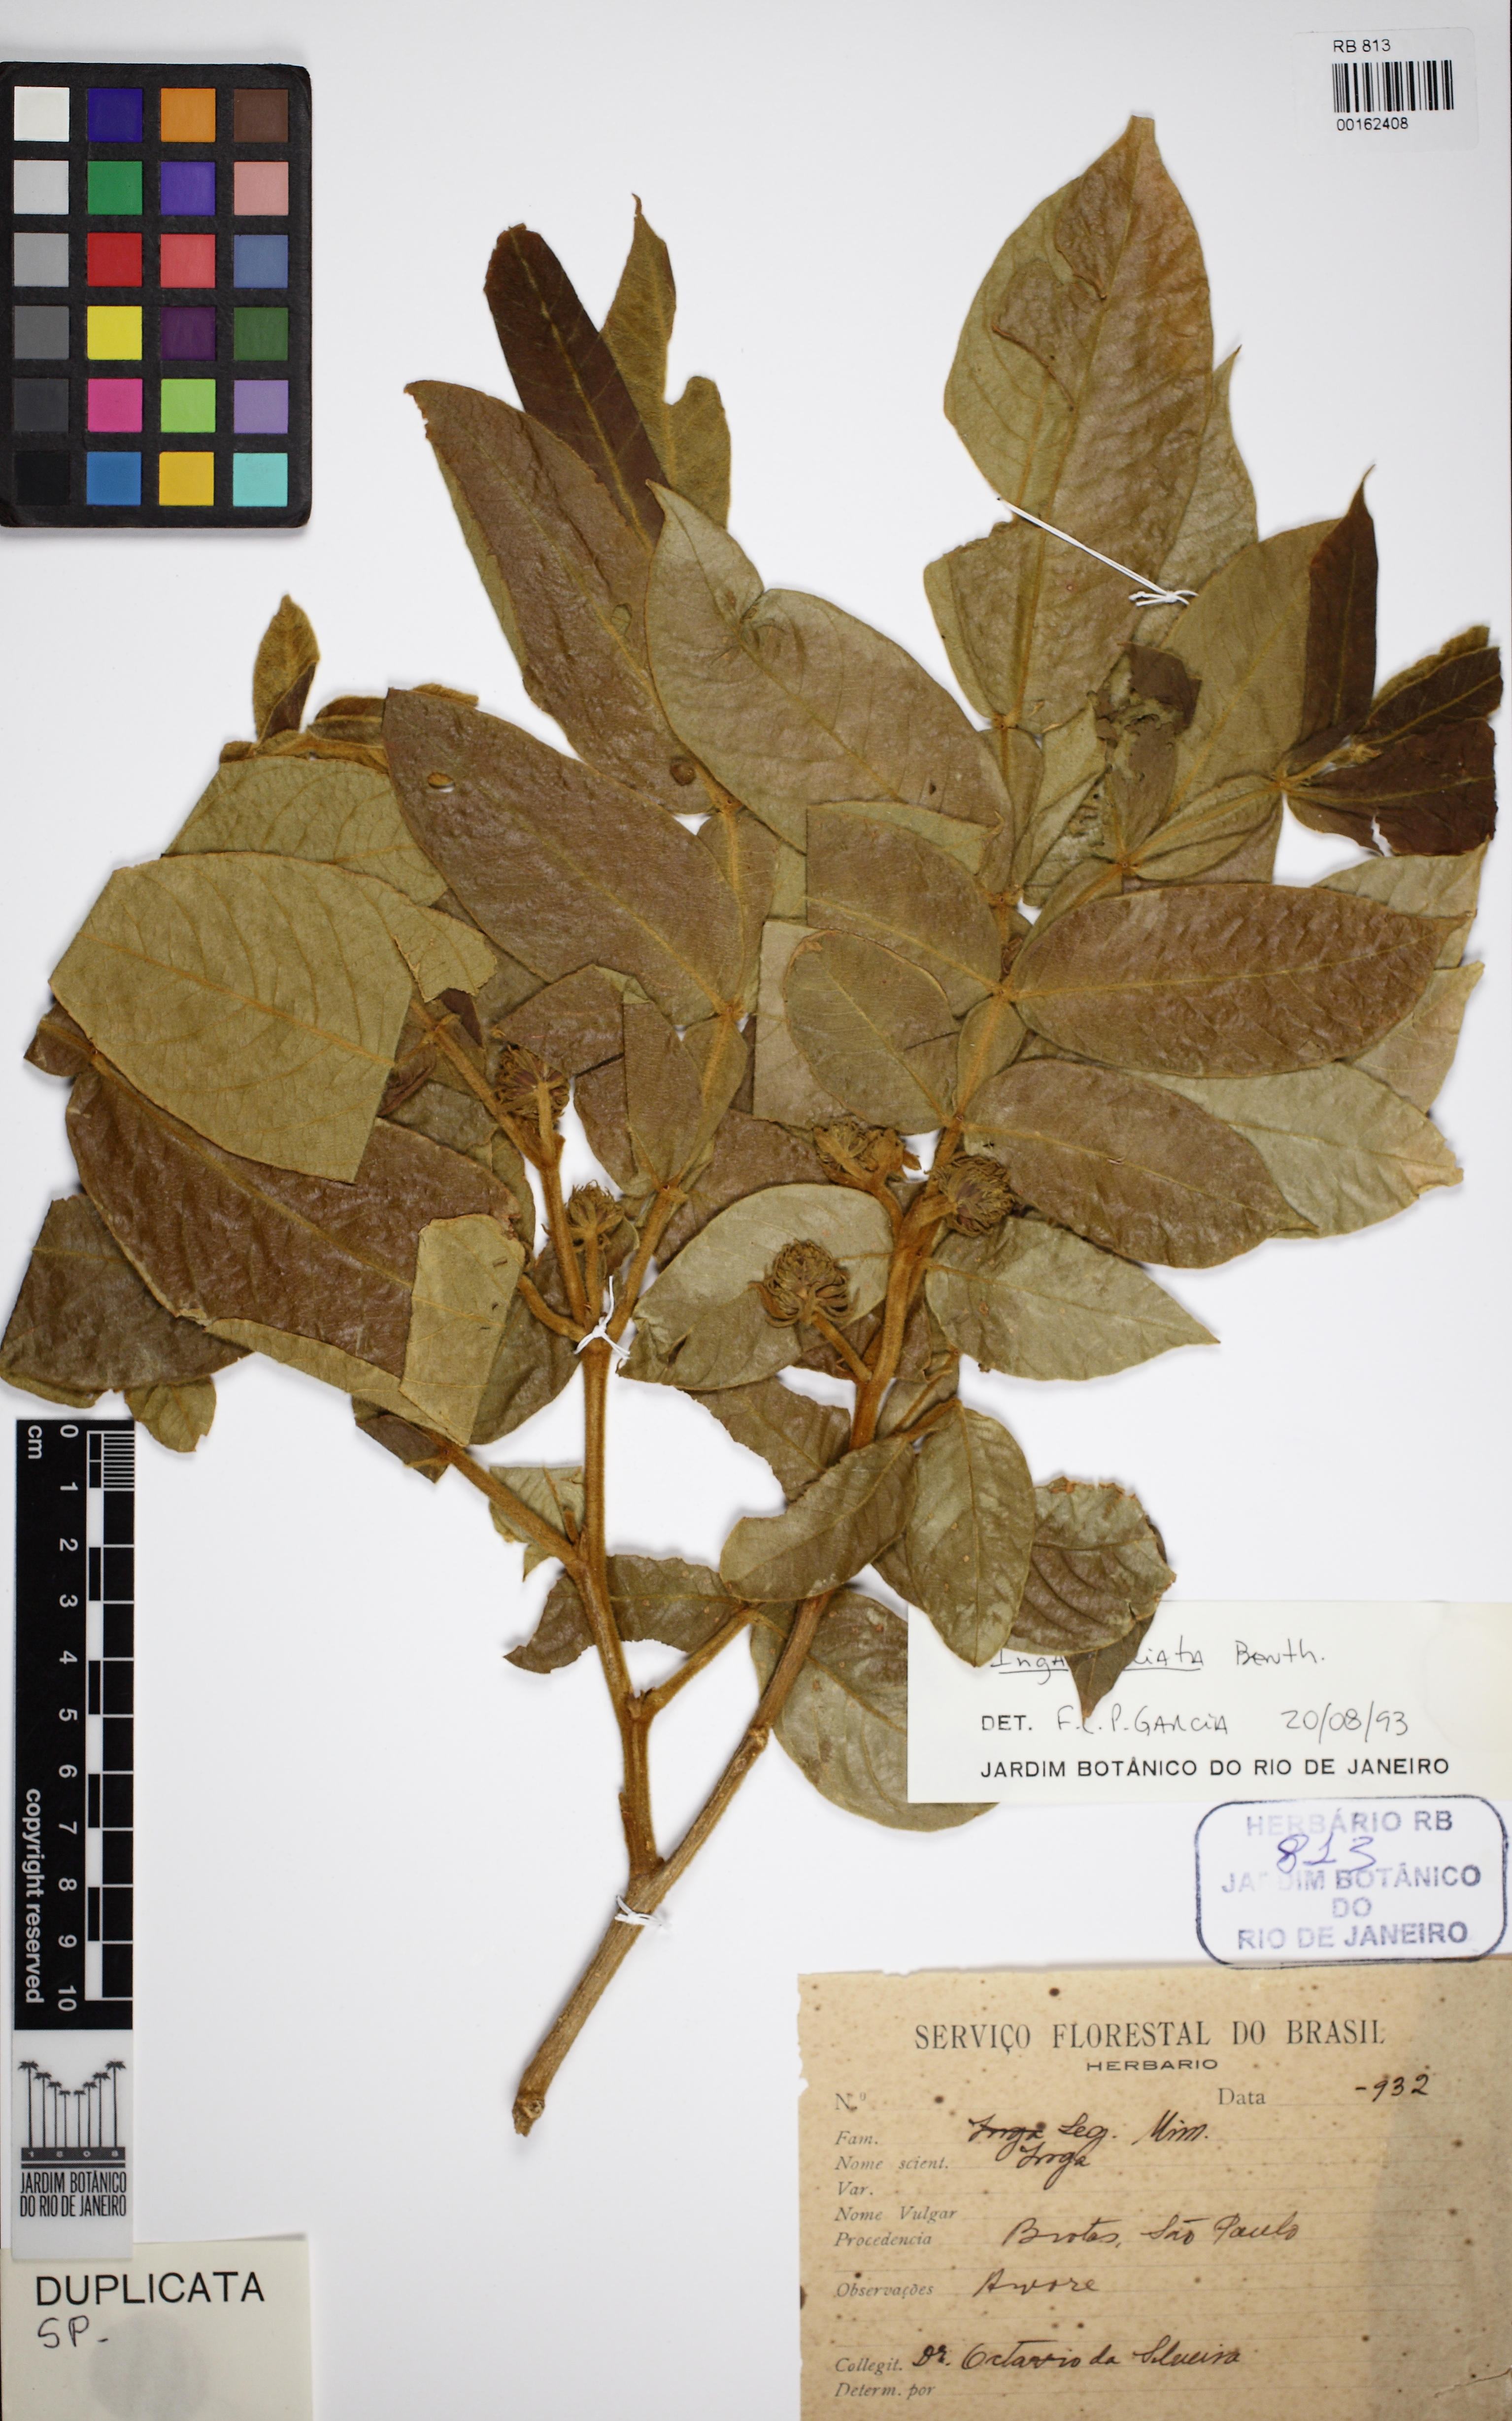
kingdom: Plantae
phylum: Tracheophyta
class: Magnoliopsida
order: Fabales
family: Fabaceae
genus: Albizia
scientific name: Albizia pistaciifolia
